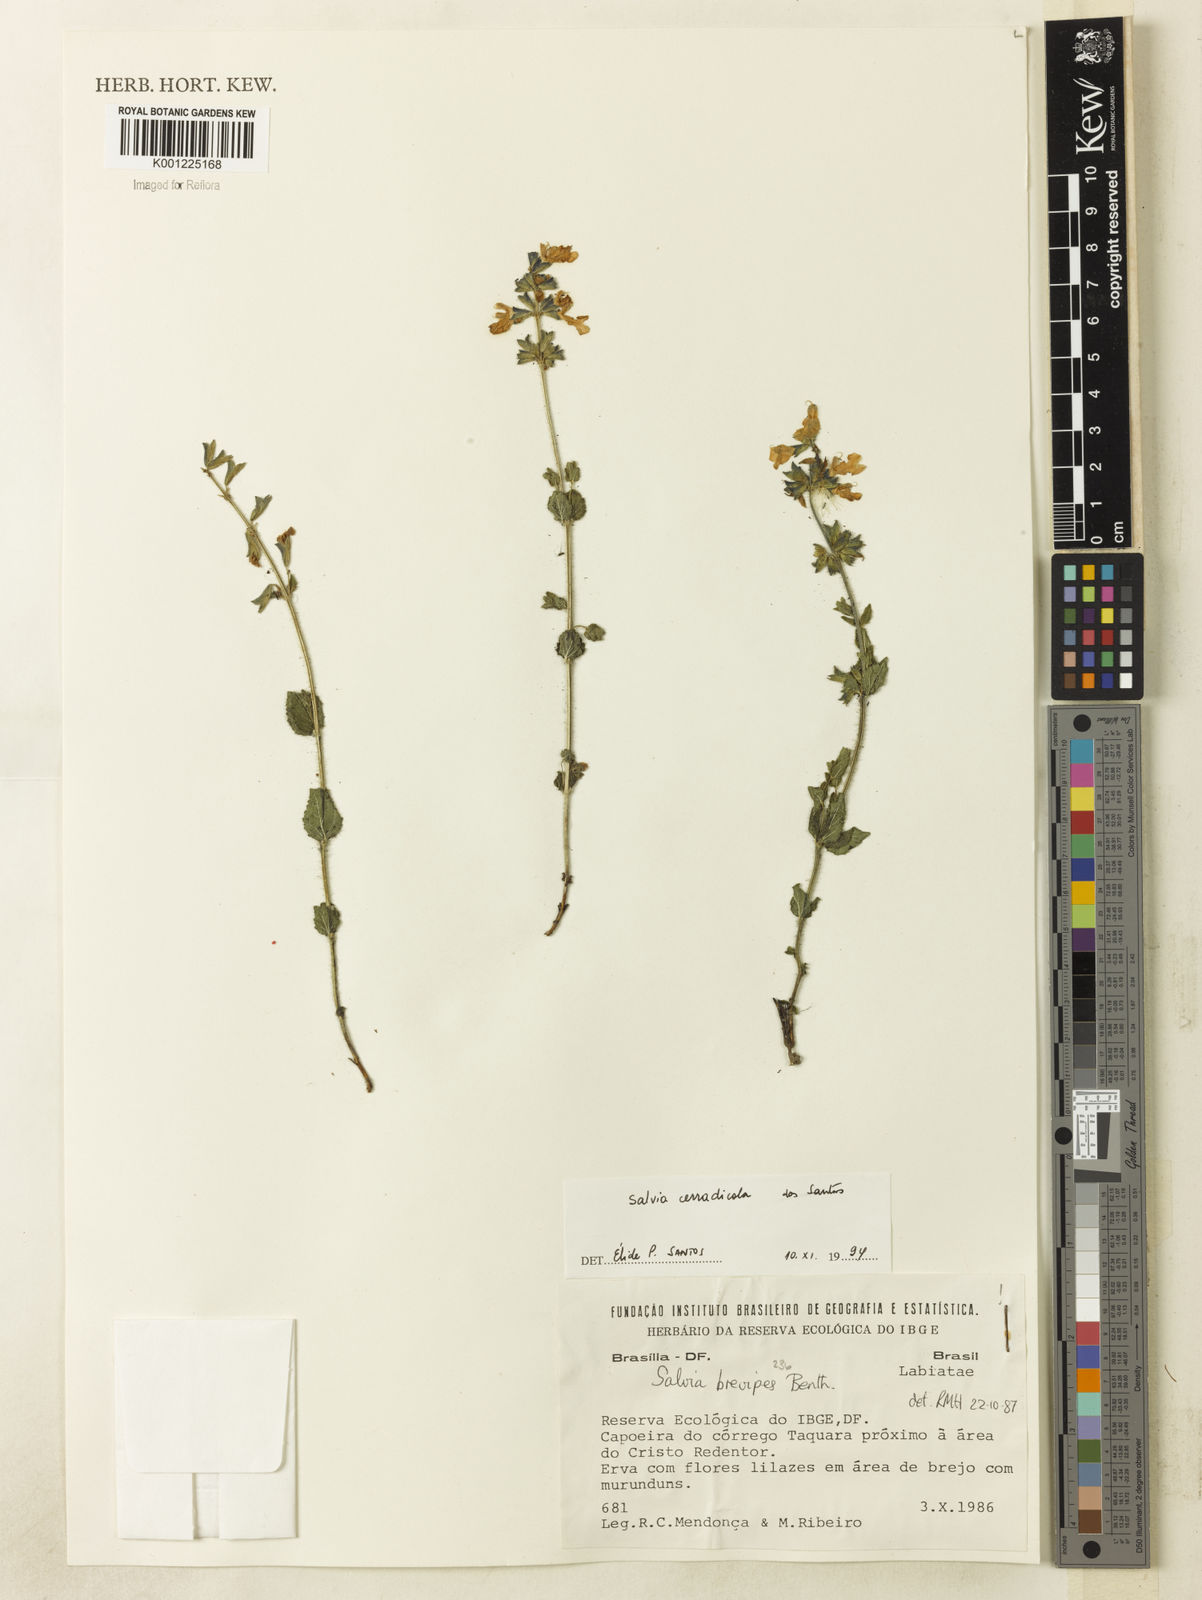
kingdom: Plantae
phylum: Tracheophyta
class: Magnoliopsida
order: Lamiales
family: Lamiaceae
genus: Salvia
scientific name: Salvia cerradicola
